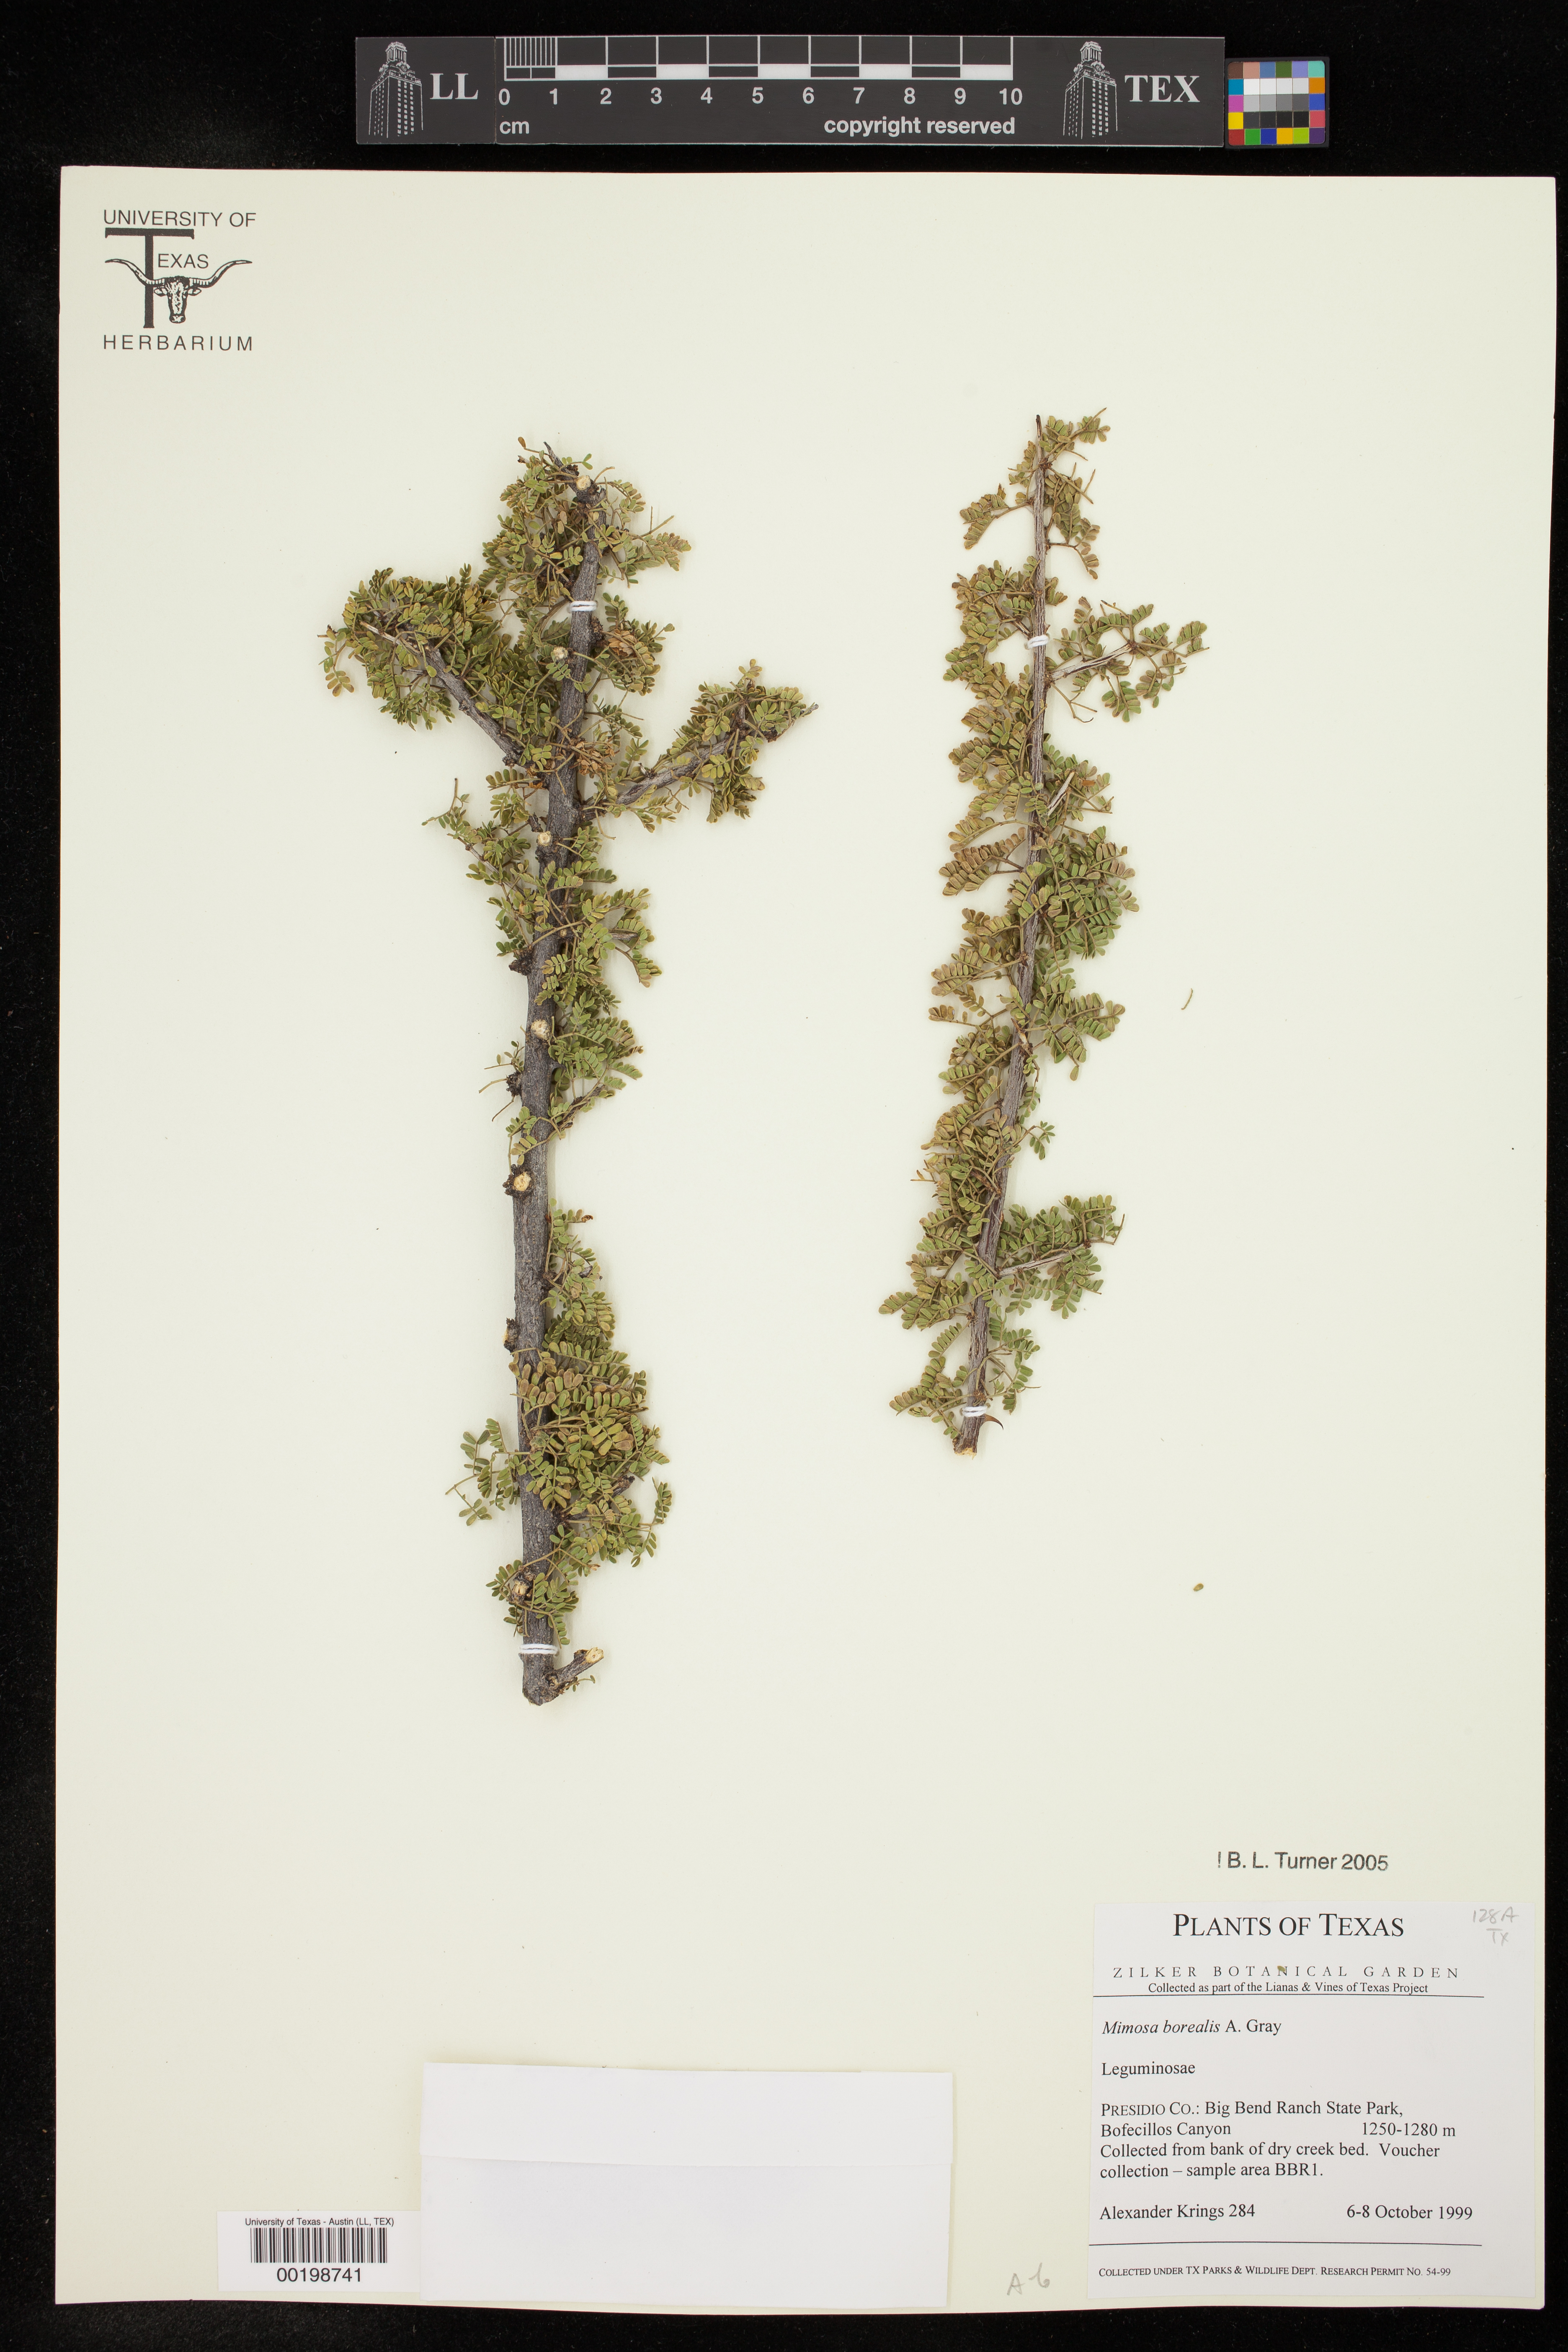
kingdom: Plantae
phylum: Tracheophyta
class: Magnoliopsida
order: Fabales
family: Fabaceae
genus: Mimosa
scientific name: Mimosa borealis
